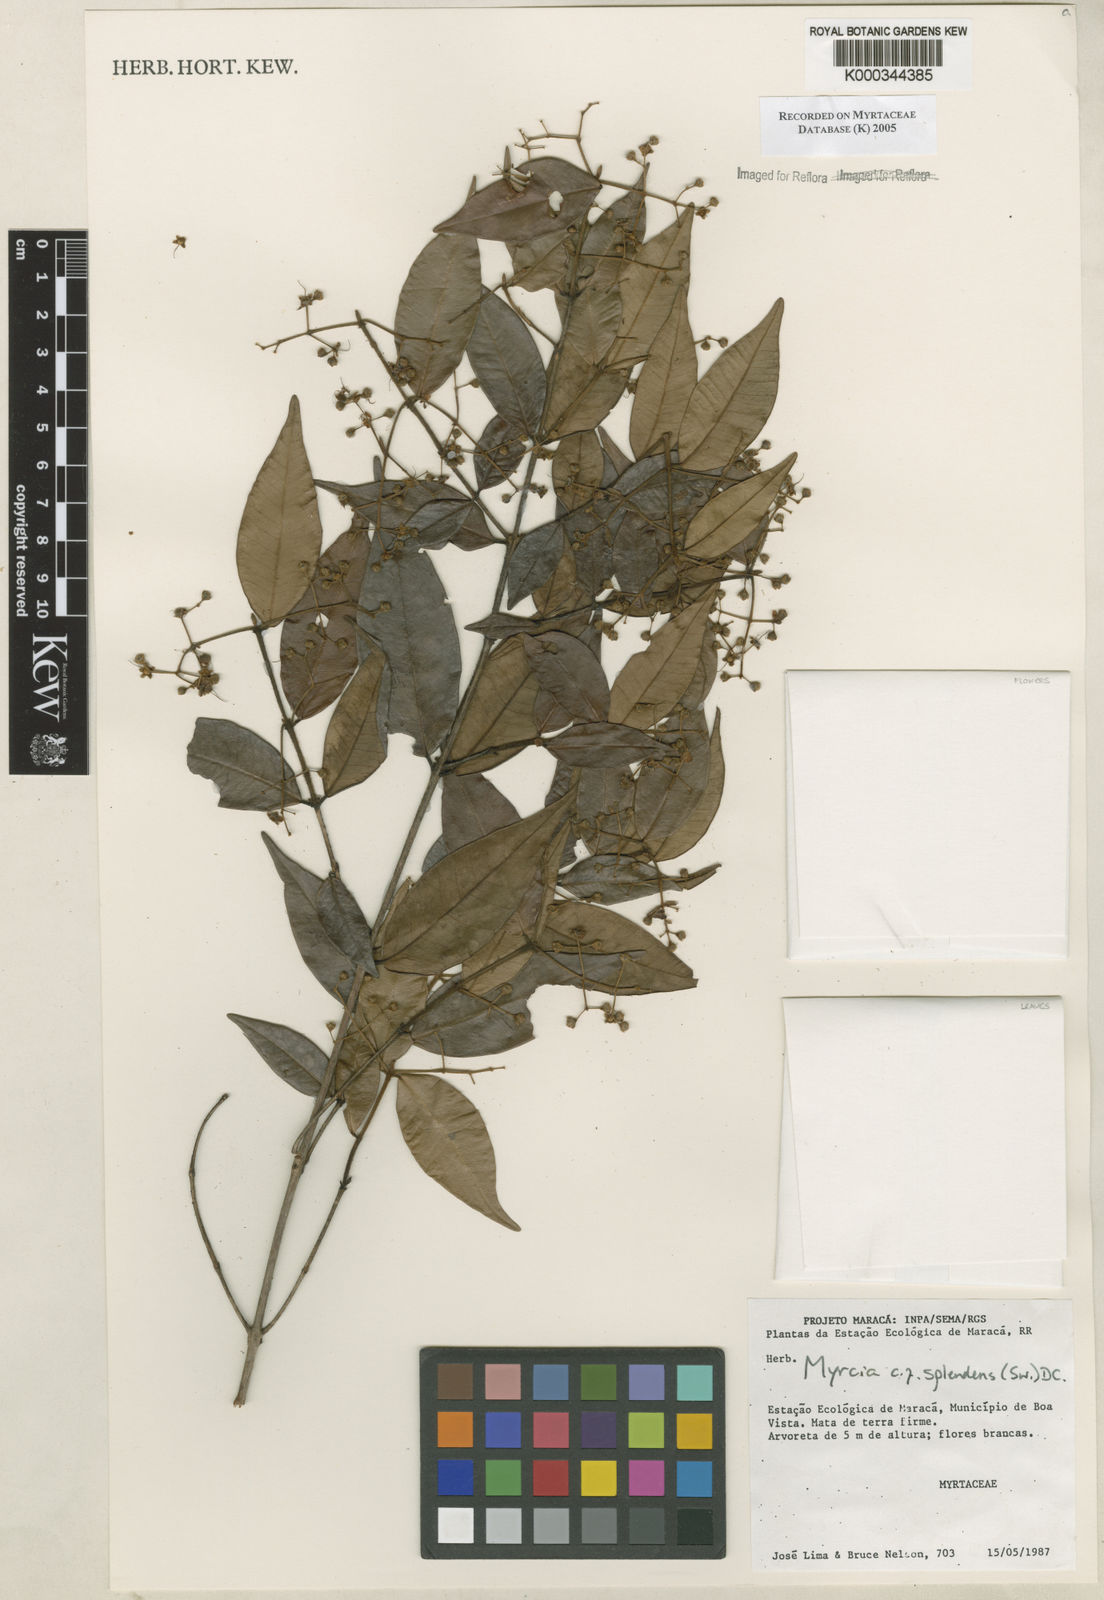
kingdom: Plantae
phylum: Tracheophyta
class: Magnoliopsida
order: Myrtales
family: Myrtaceae
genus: Myrcia
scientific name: Myrcia splendens
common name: Surinam cherry
